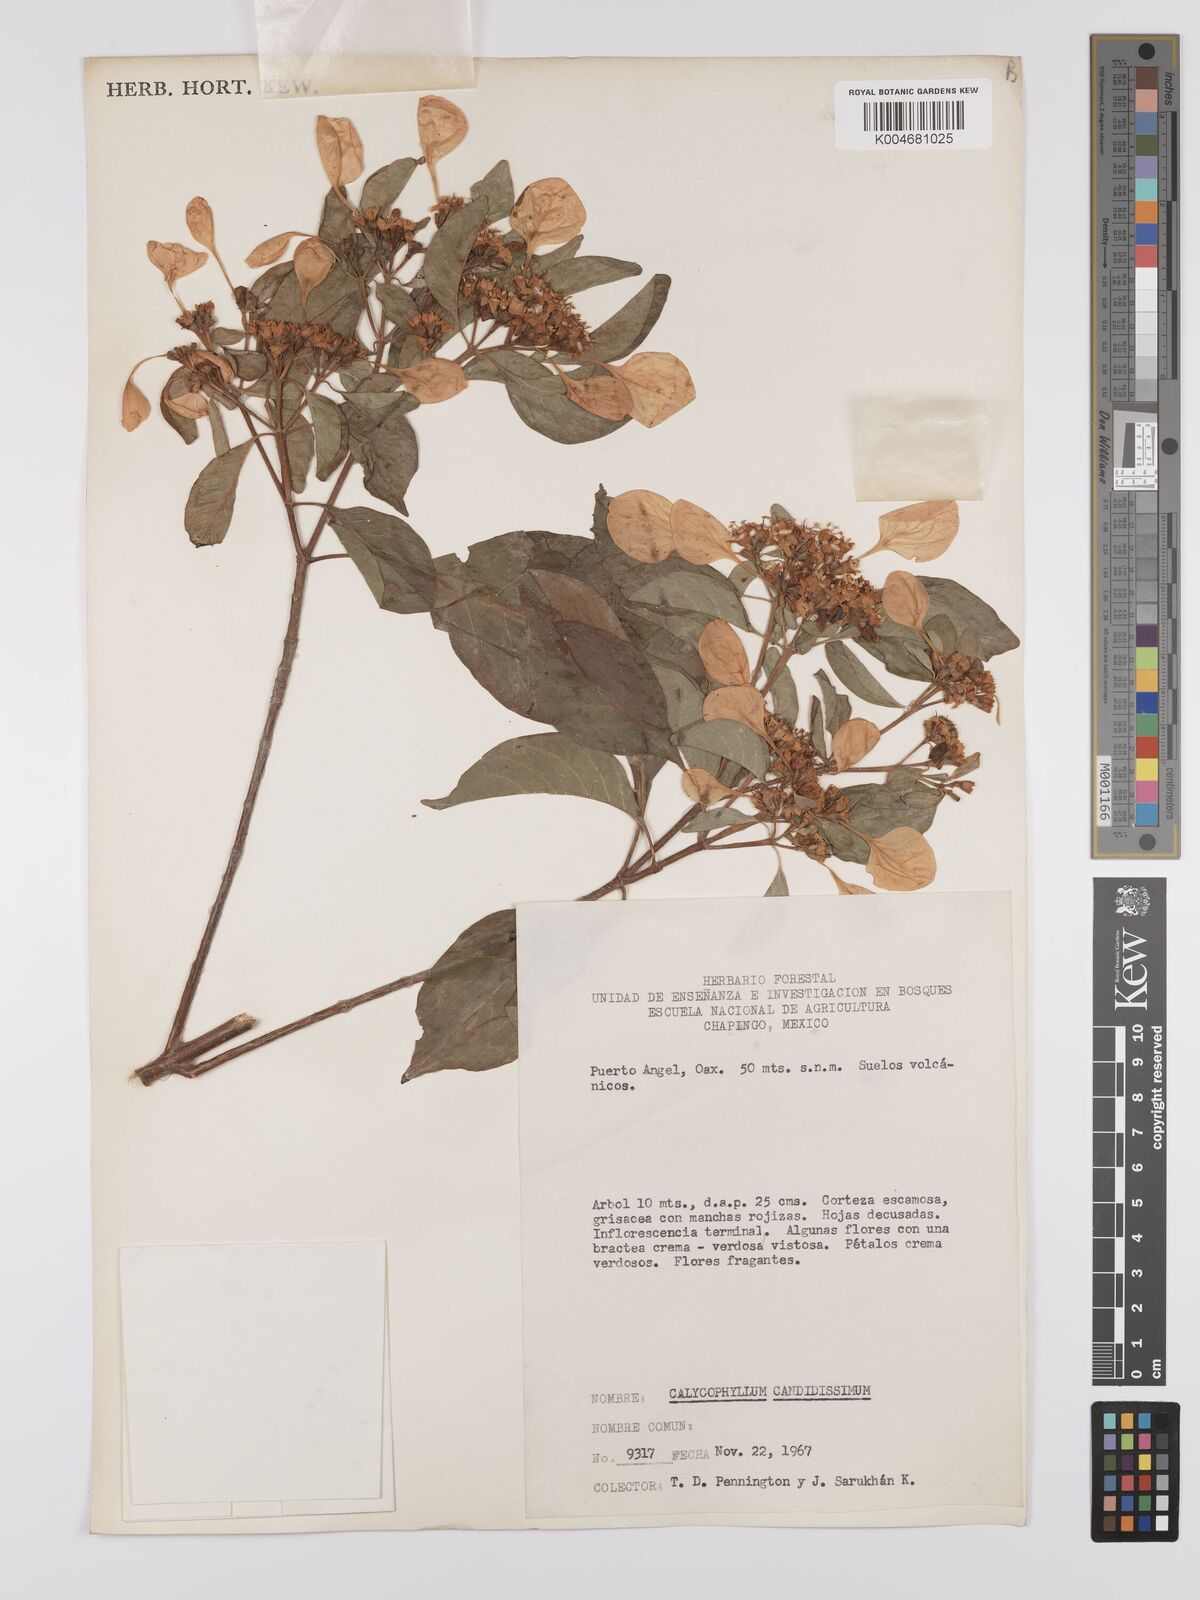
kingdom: Plantae
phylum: Tracheophyta
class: Magnoliopsida
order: Gentianales
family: Rubiaceae
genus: Calycophyllum
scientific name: Calycophyllum candidissimum
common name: Dagame
